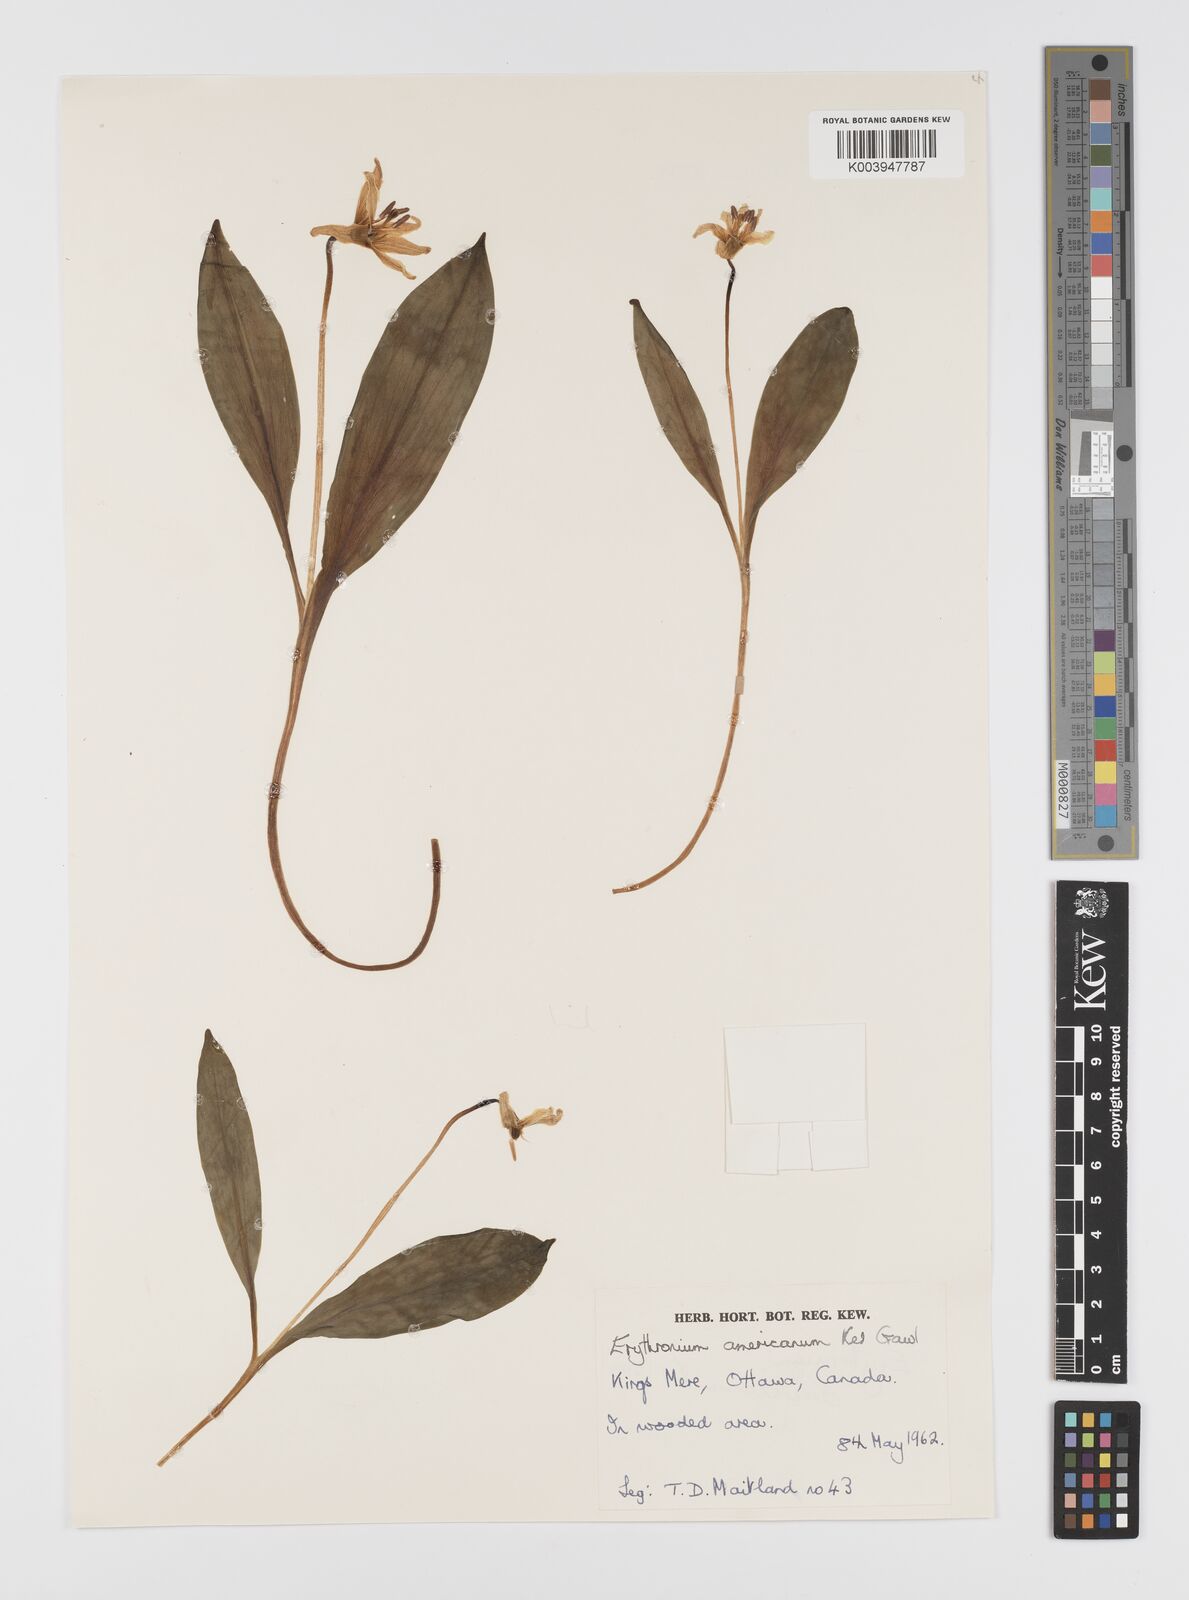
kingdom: Plantae
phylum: Tracheophyta
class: Liliopsida
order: Liliales
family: Liliaceae
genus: Erythronium
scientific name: Erythronium americanum
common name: Yellow adder's-tongue
